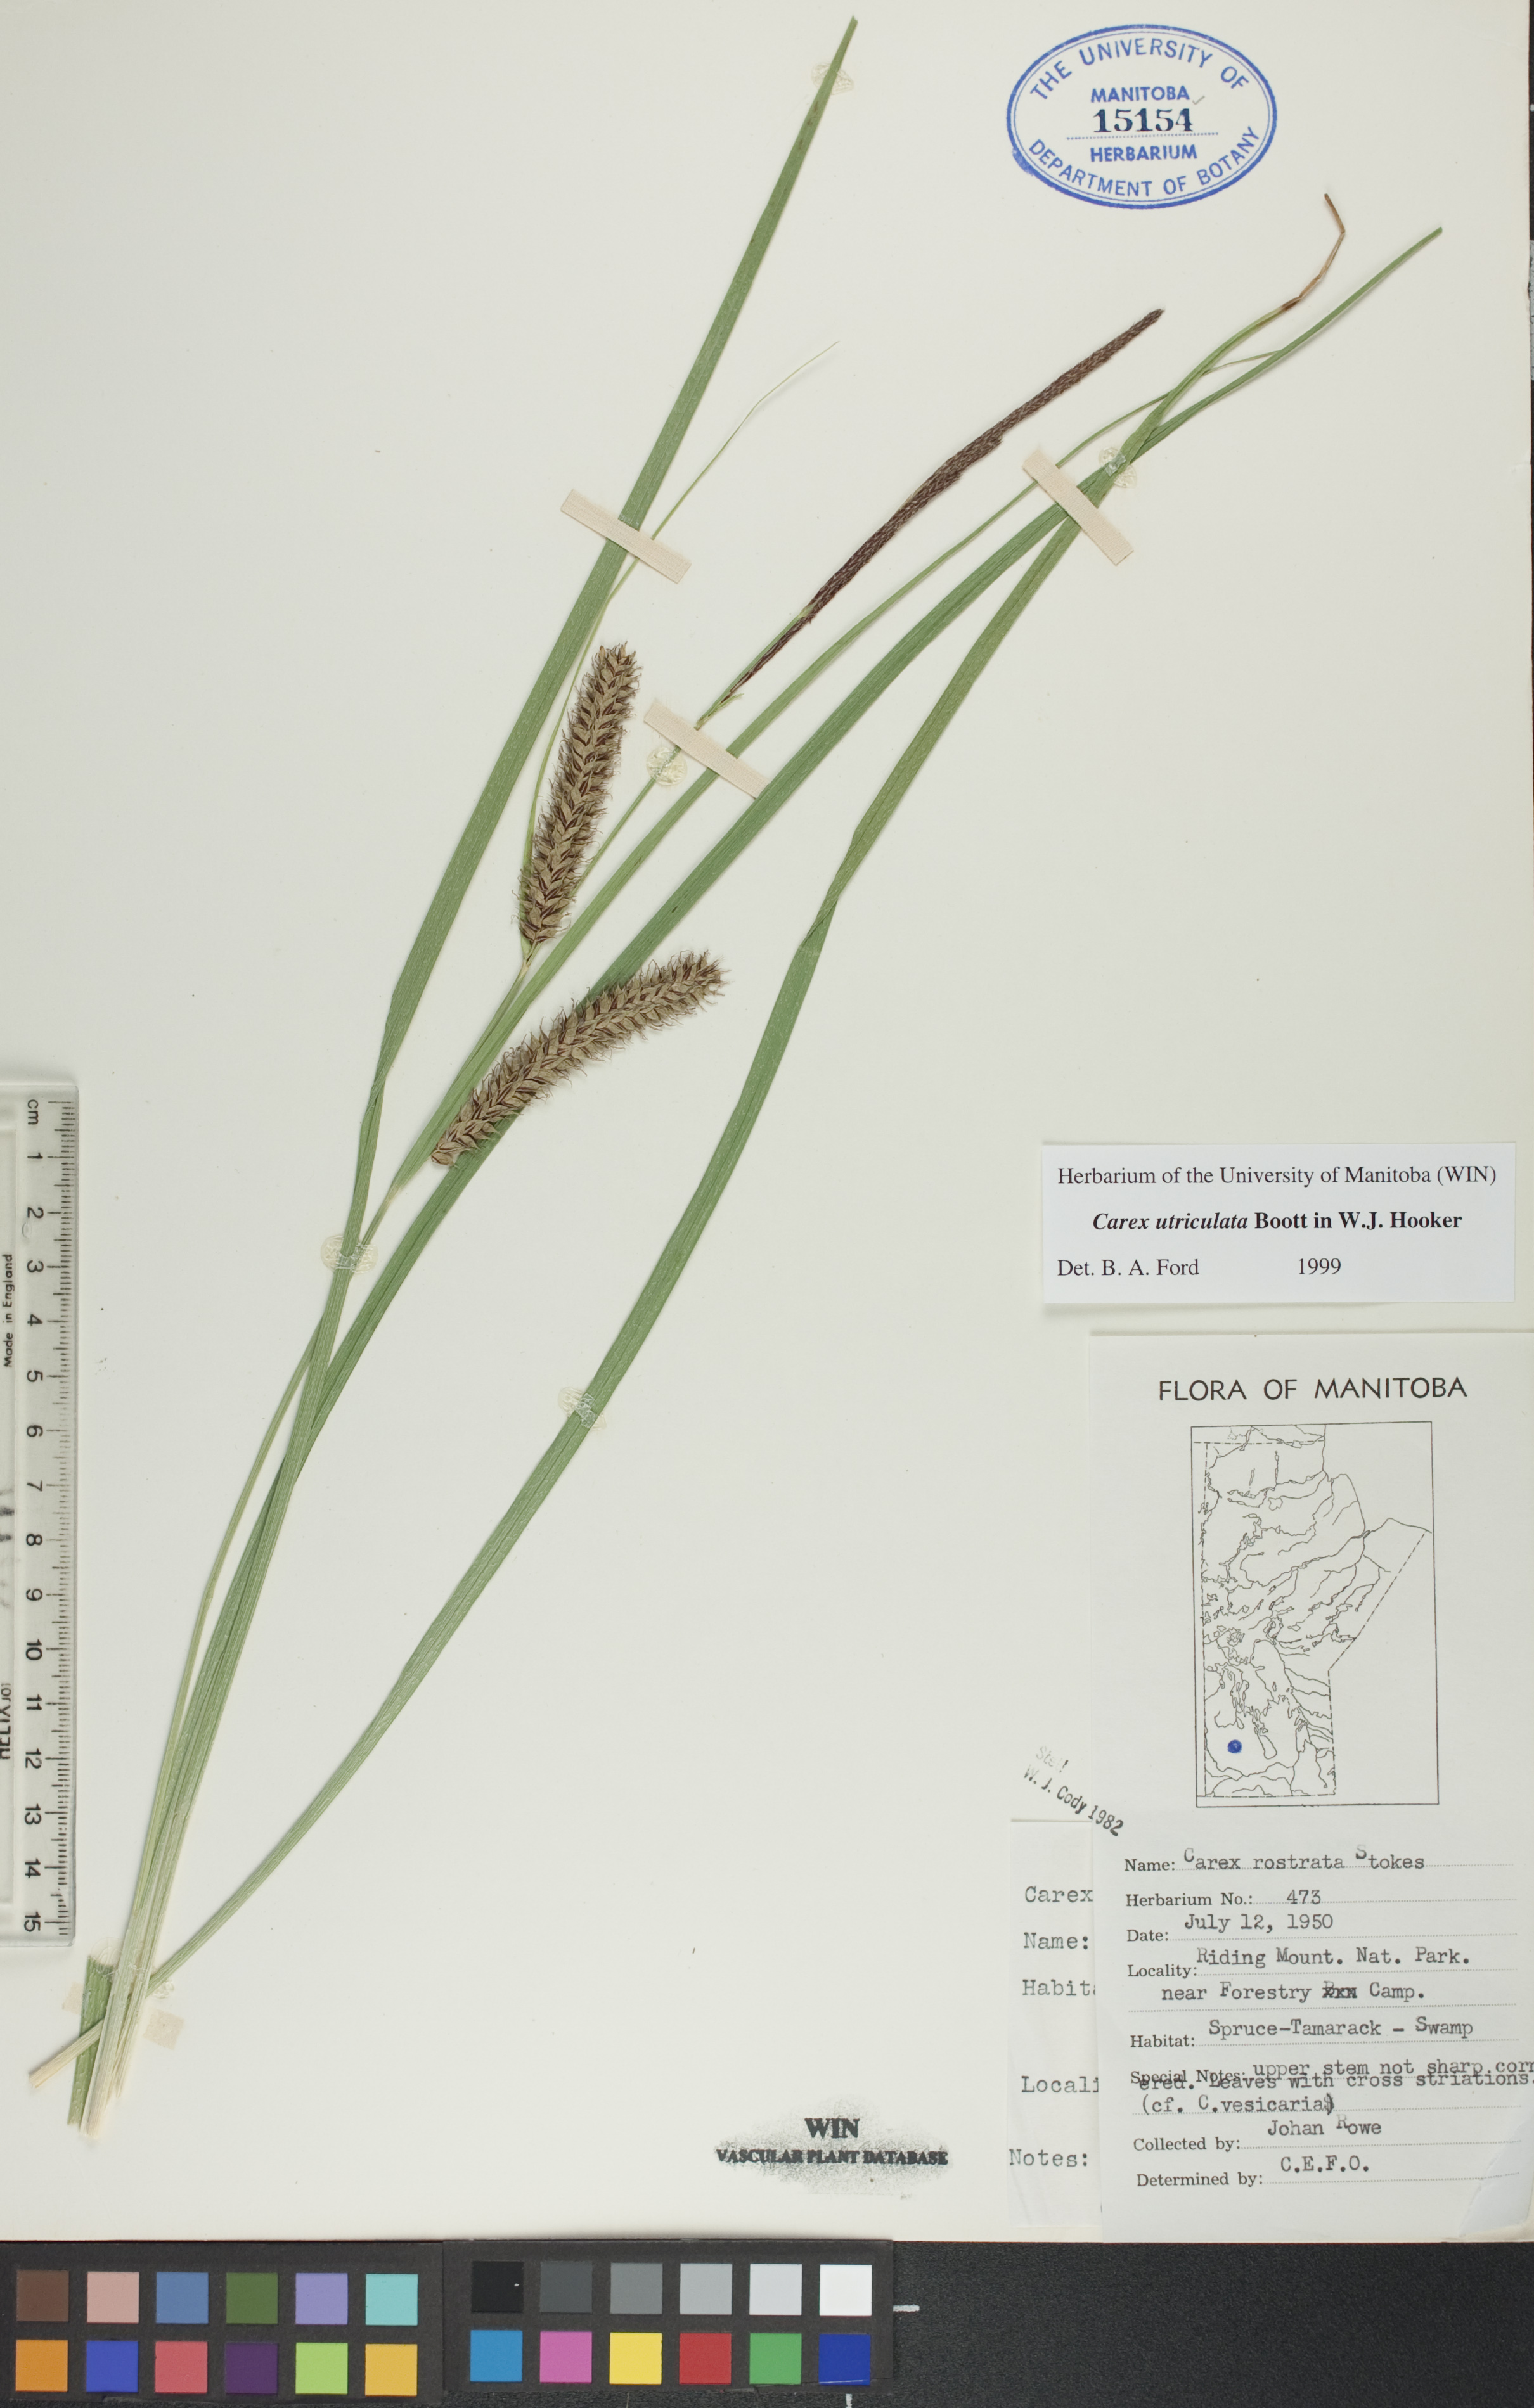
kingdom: Plantae
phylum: Tracheophyta
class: Liliopsida
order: Poales
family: Cyperaceae
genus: Carex
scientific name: Carex utriculata
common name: Beaked sedge
